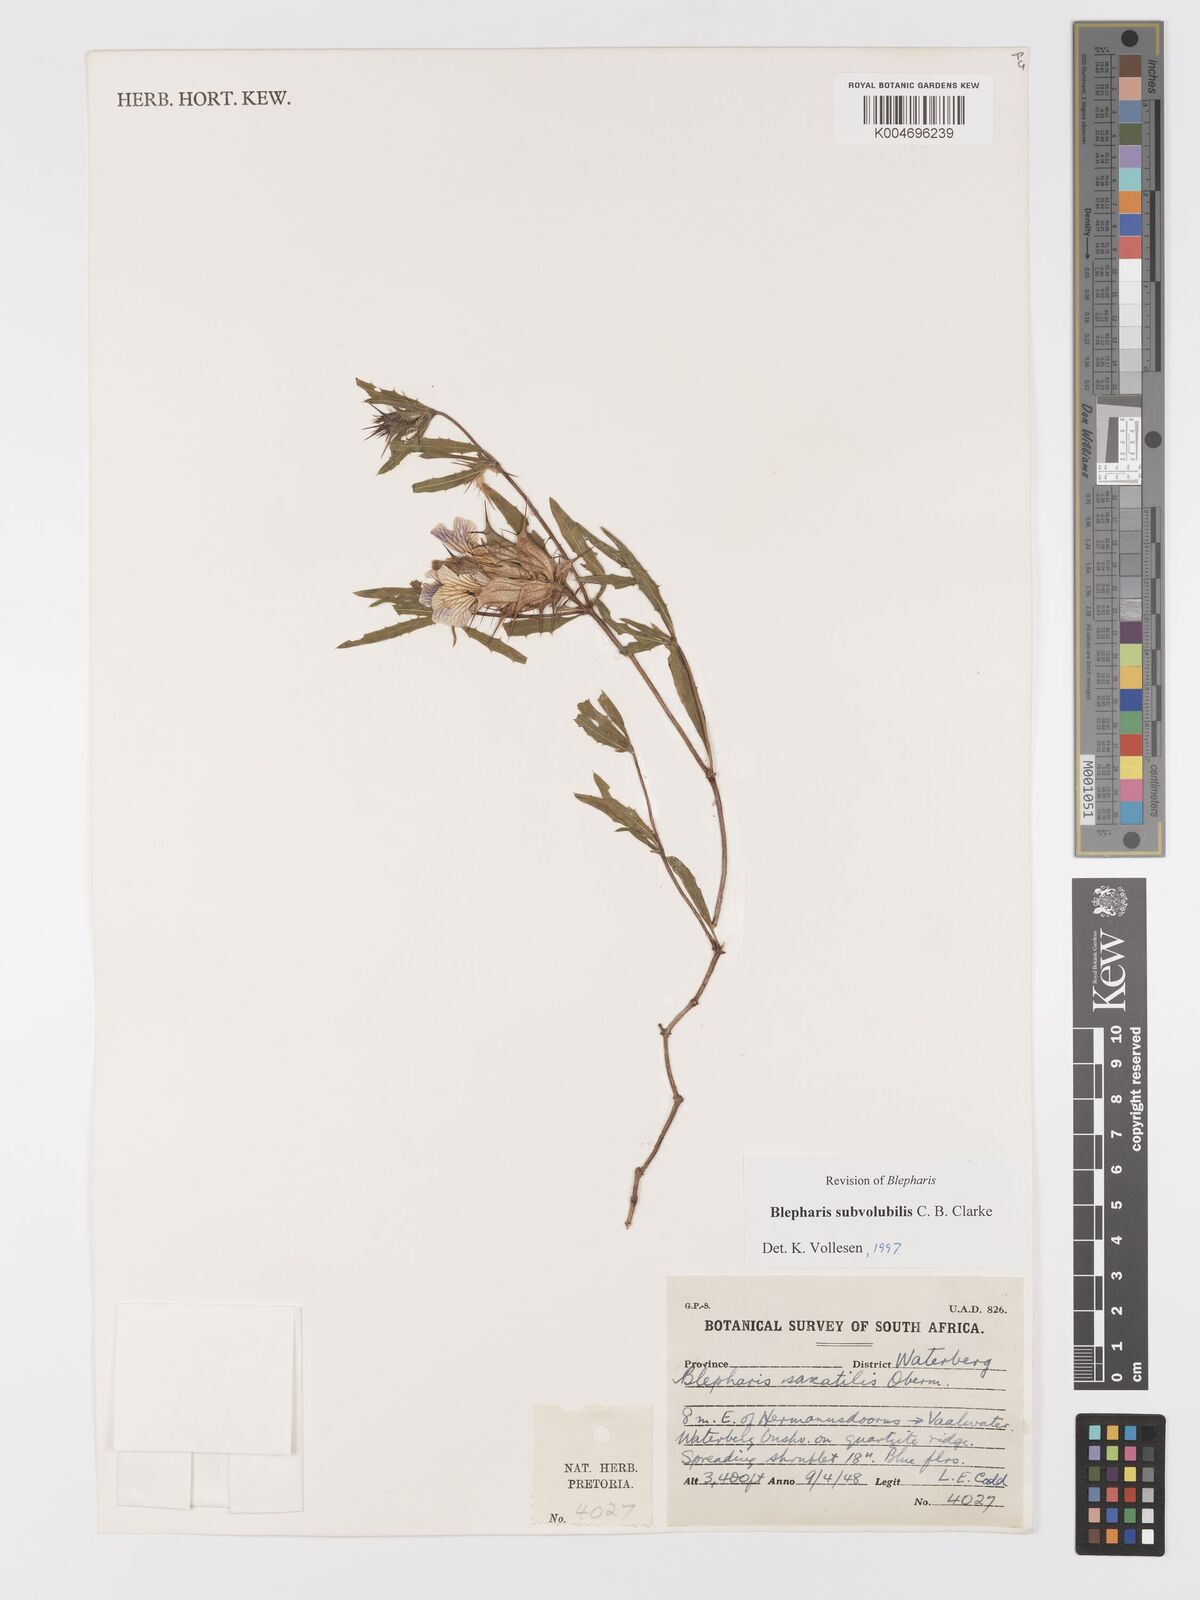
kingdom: Plantae
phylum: Tracheophyta
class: Magnoliopsida
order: Lamiales
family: Acanthaceae
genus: Blepharis
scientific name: Blepharis subvolubilis
